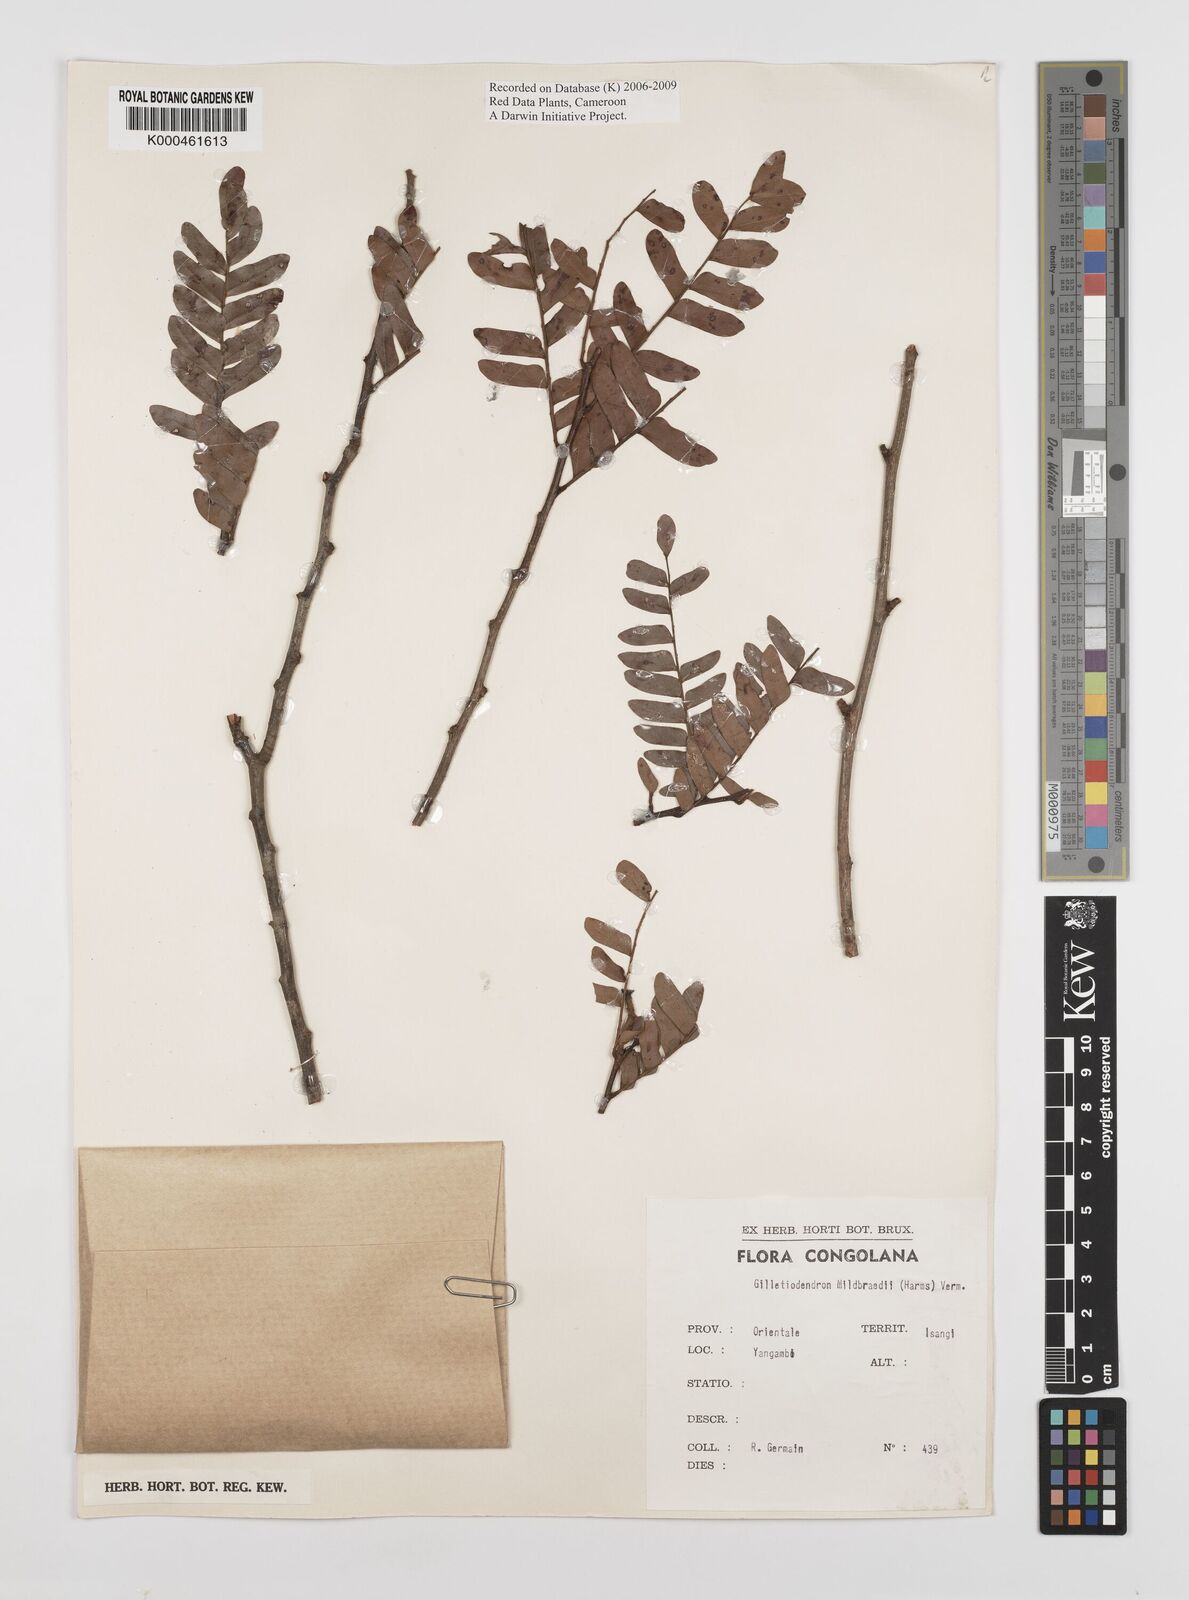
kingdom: Plantae
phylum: Tracheophyta
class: Magnoliopsida
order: Fabales
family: Fabaceae
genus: Gilletiodendron
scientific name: Gilletiodendron mildbraedii
